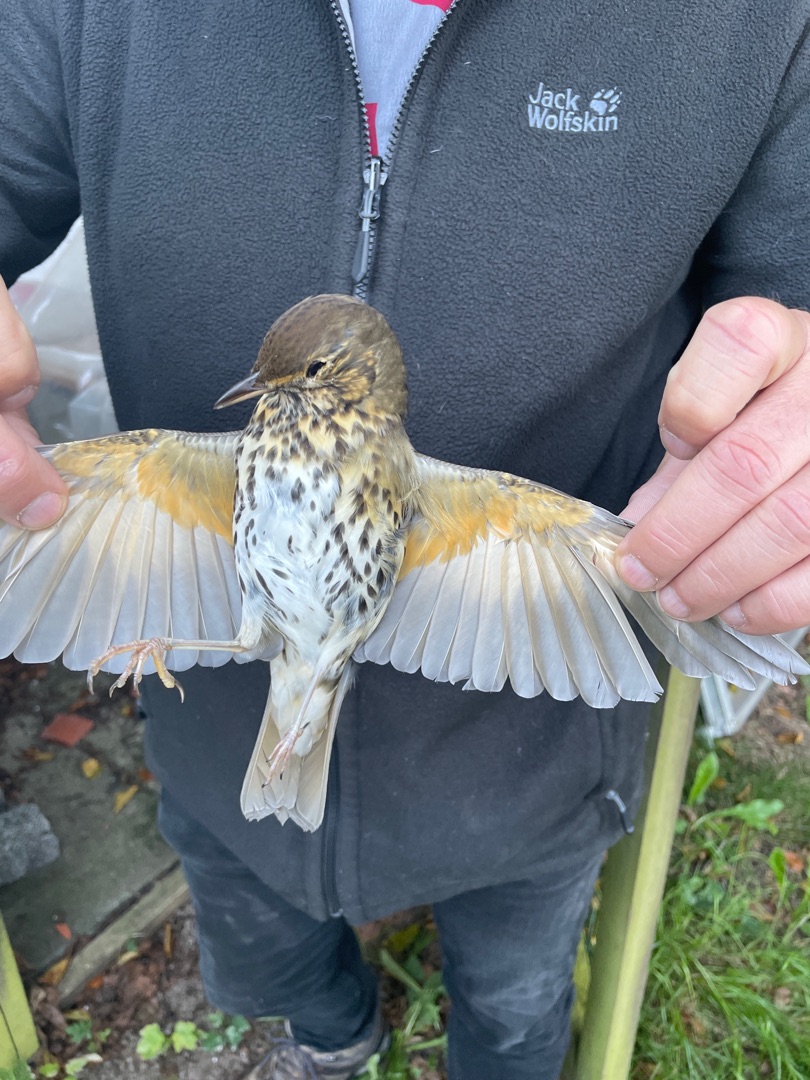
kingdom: Animalia
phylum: Chordata
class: Aves
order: Passeriformes
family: Turdidae
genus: Turdus
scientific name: Turdus philomelos
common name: Sangdrossel
